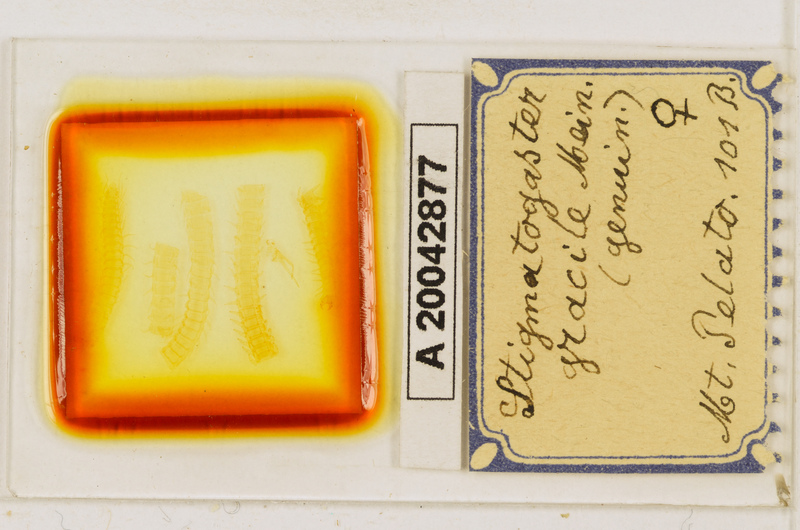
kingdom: Animalia
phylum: Arthropoda
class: Chilopoda
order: Geophilomorpha
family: Himantariidae
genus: Stigmatogaster
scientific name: Stigmatogaster
